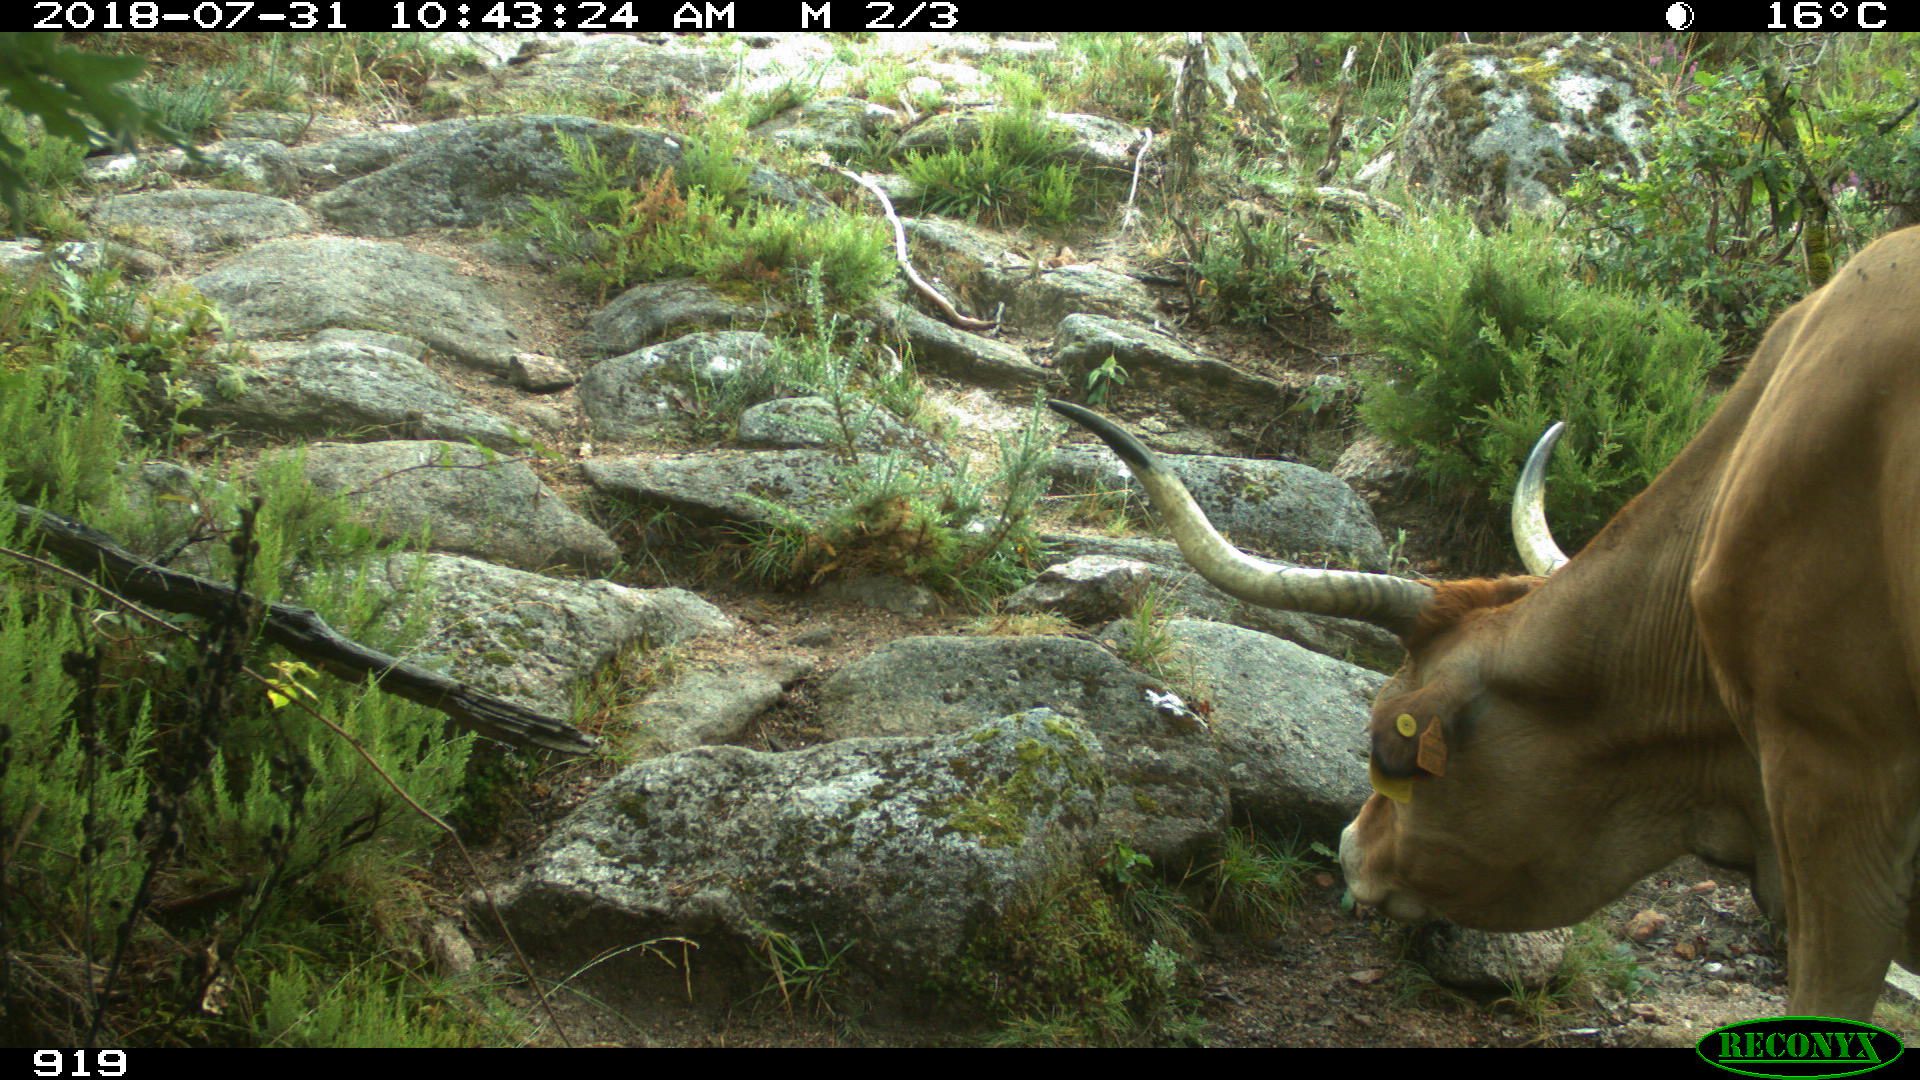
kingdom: Animalia
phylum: Chordata
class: Mammalia
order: Artiodactyla
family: Bovidae
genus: Bos
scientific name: Bos taurus
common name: Domesticated cattle
